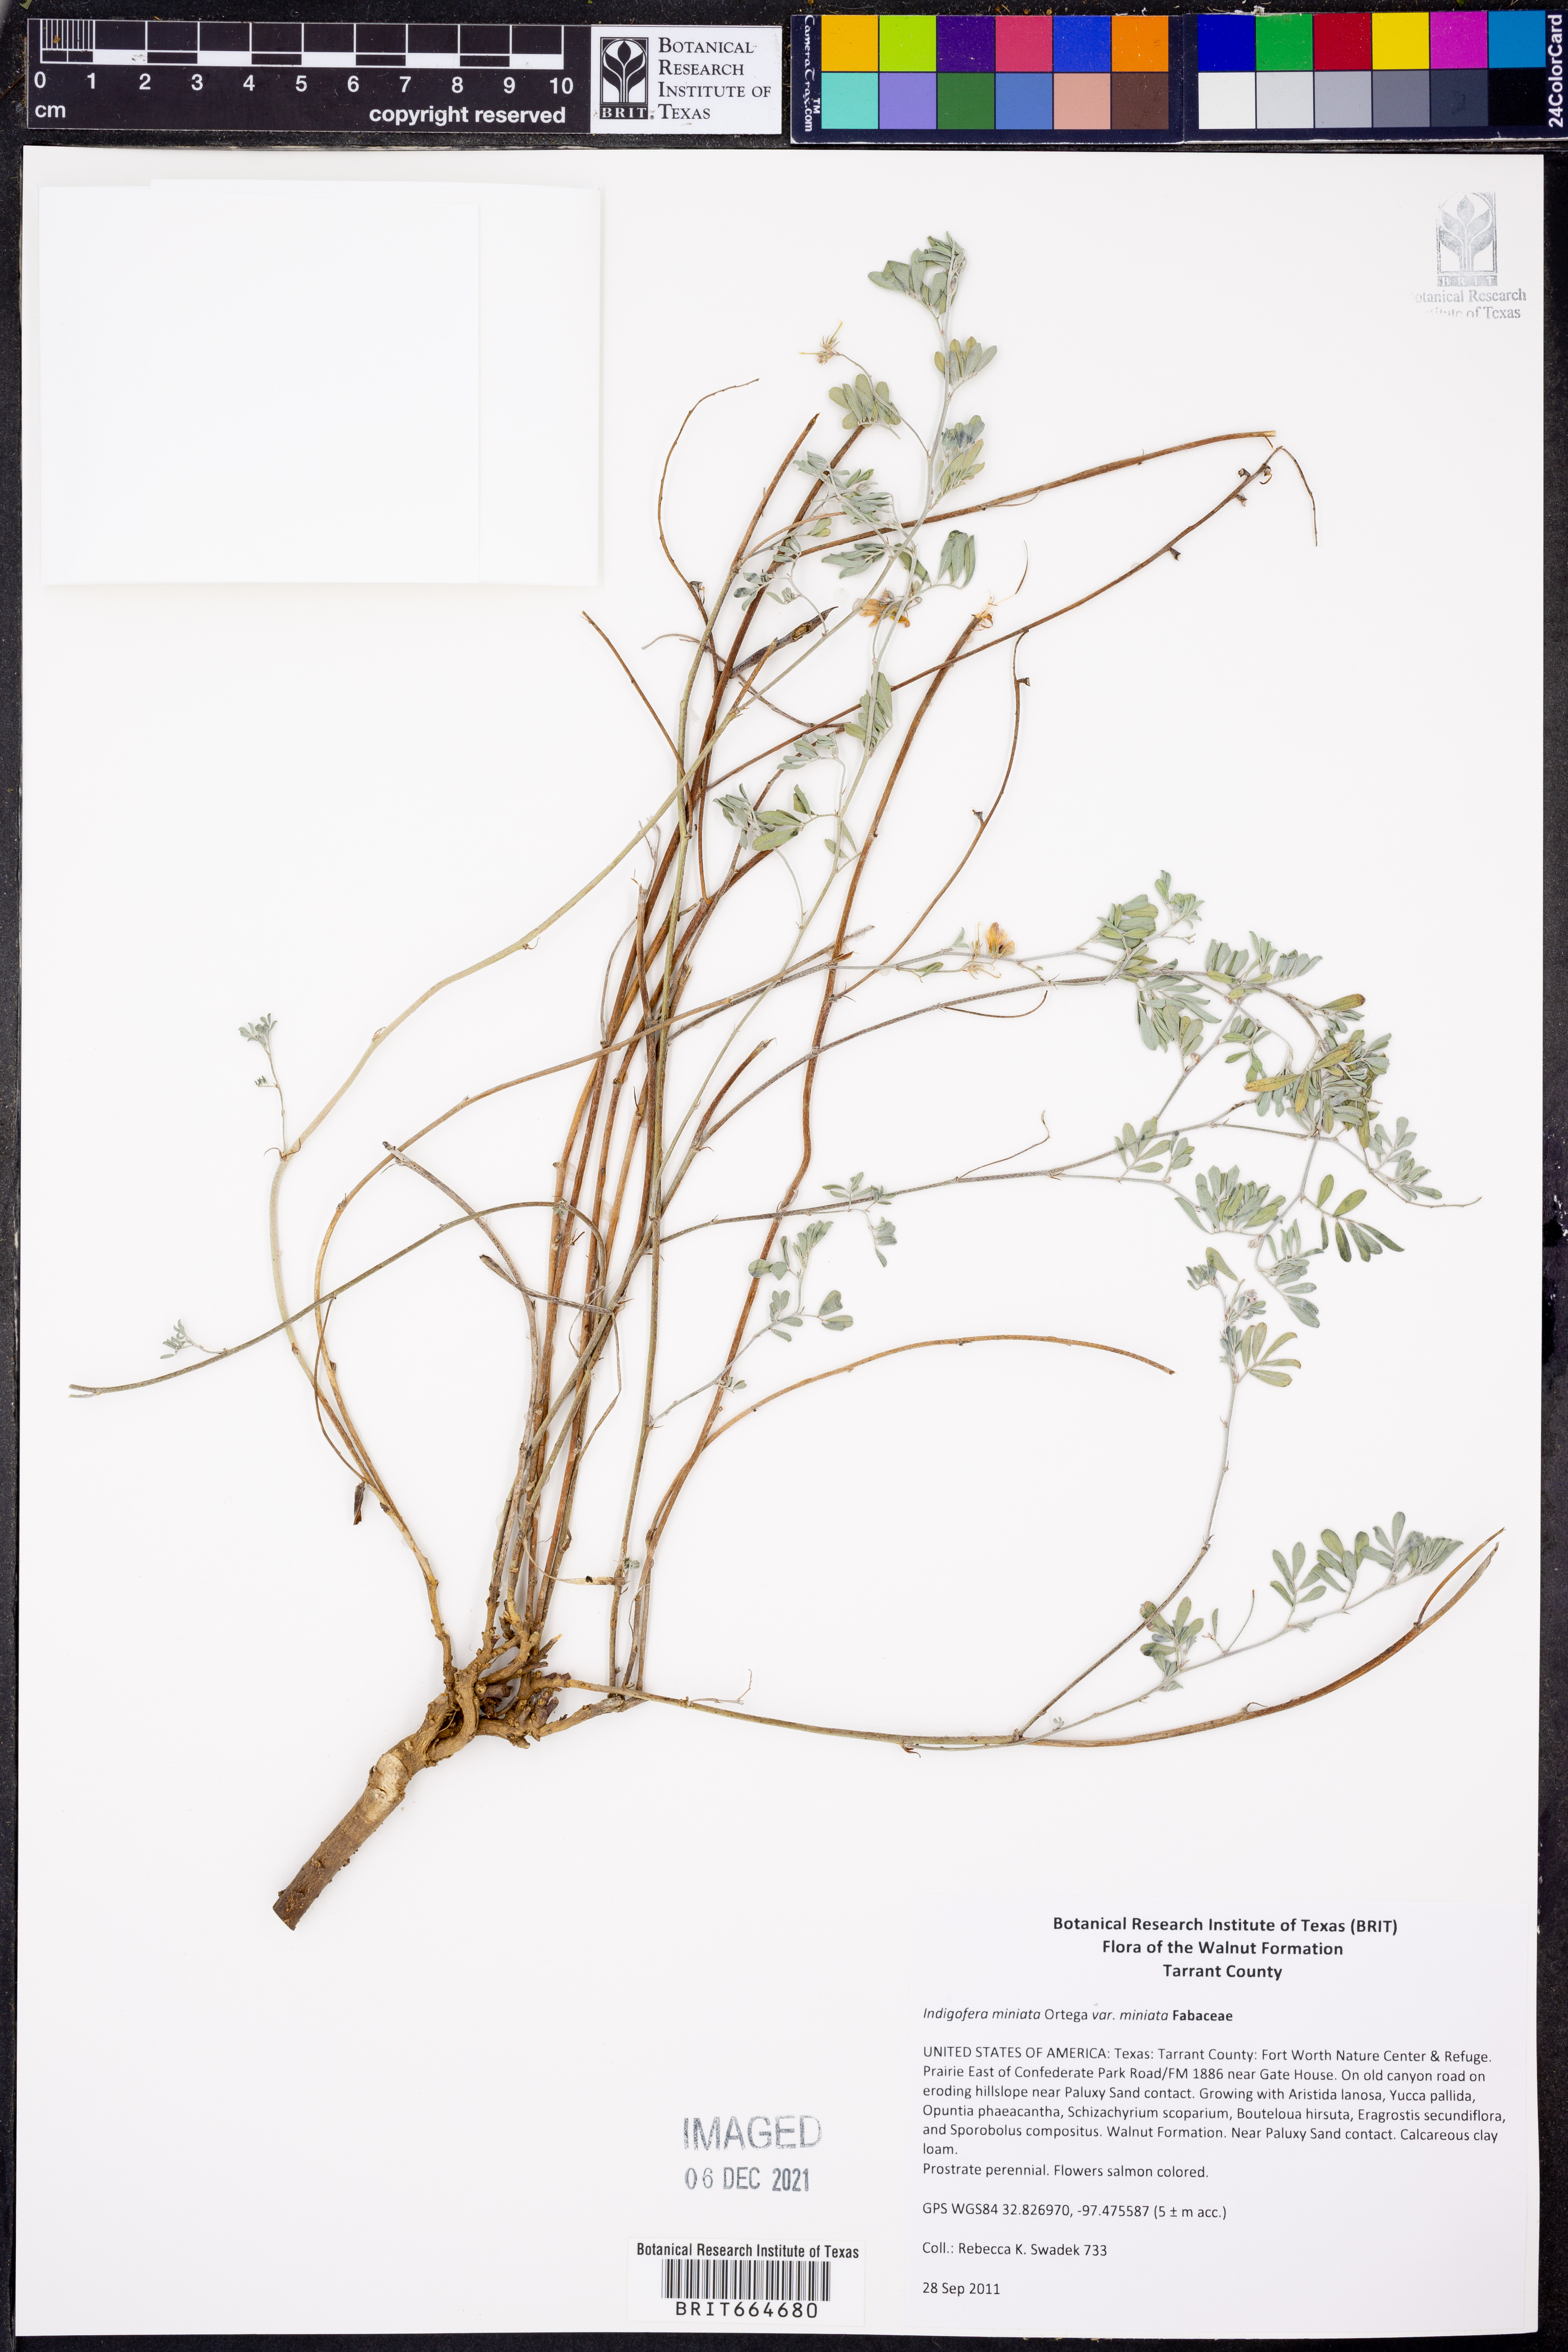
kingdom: Plantae
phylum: Tracheophyta
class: Magnoliopsida
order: Fabales
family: Fabaceae
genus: Indigofera
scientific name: Indigofera miniata
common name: Coast indigo
